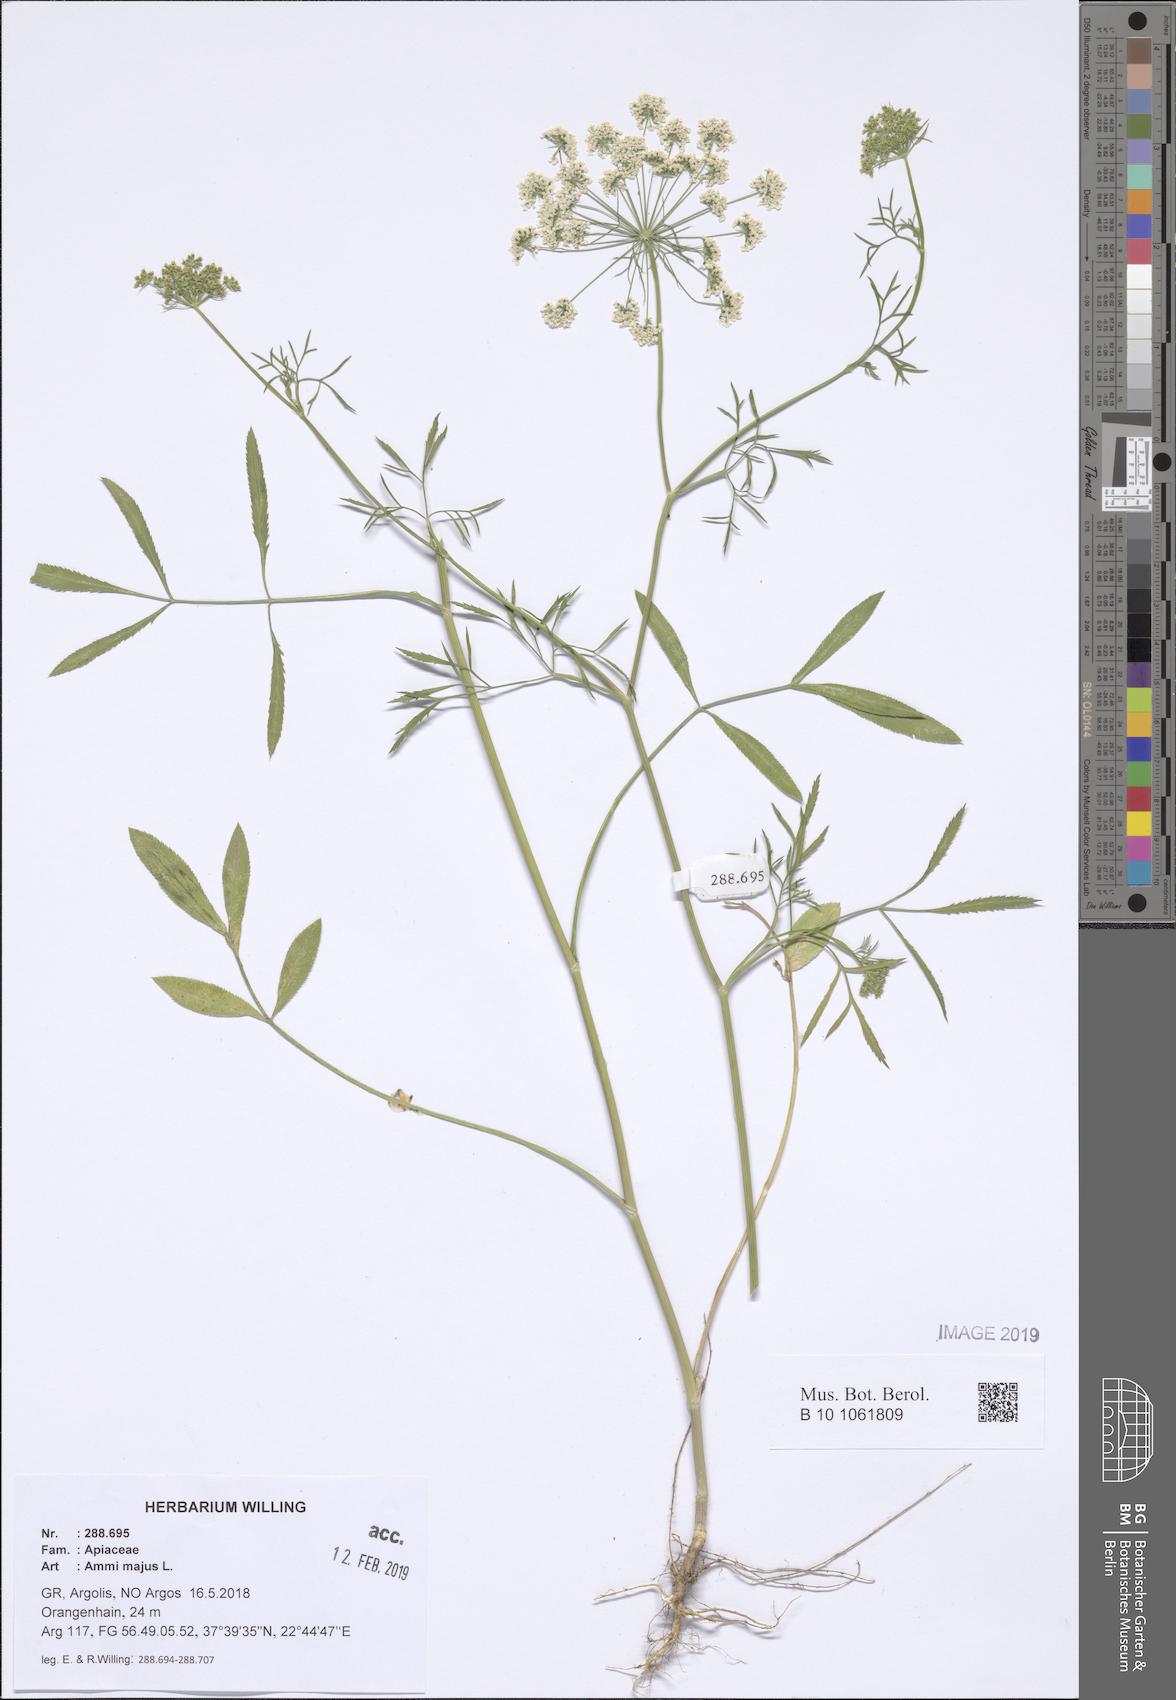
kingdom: Plantae
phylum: Tracheophyta
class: Magnoliopsida
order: Apiales
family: Apiaceae
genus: Ammi
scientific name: Ammi majus
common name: Bullwort
